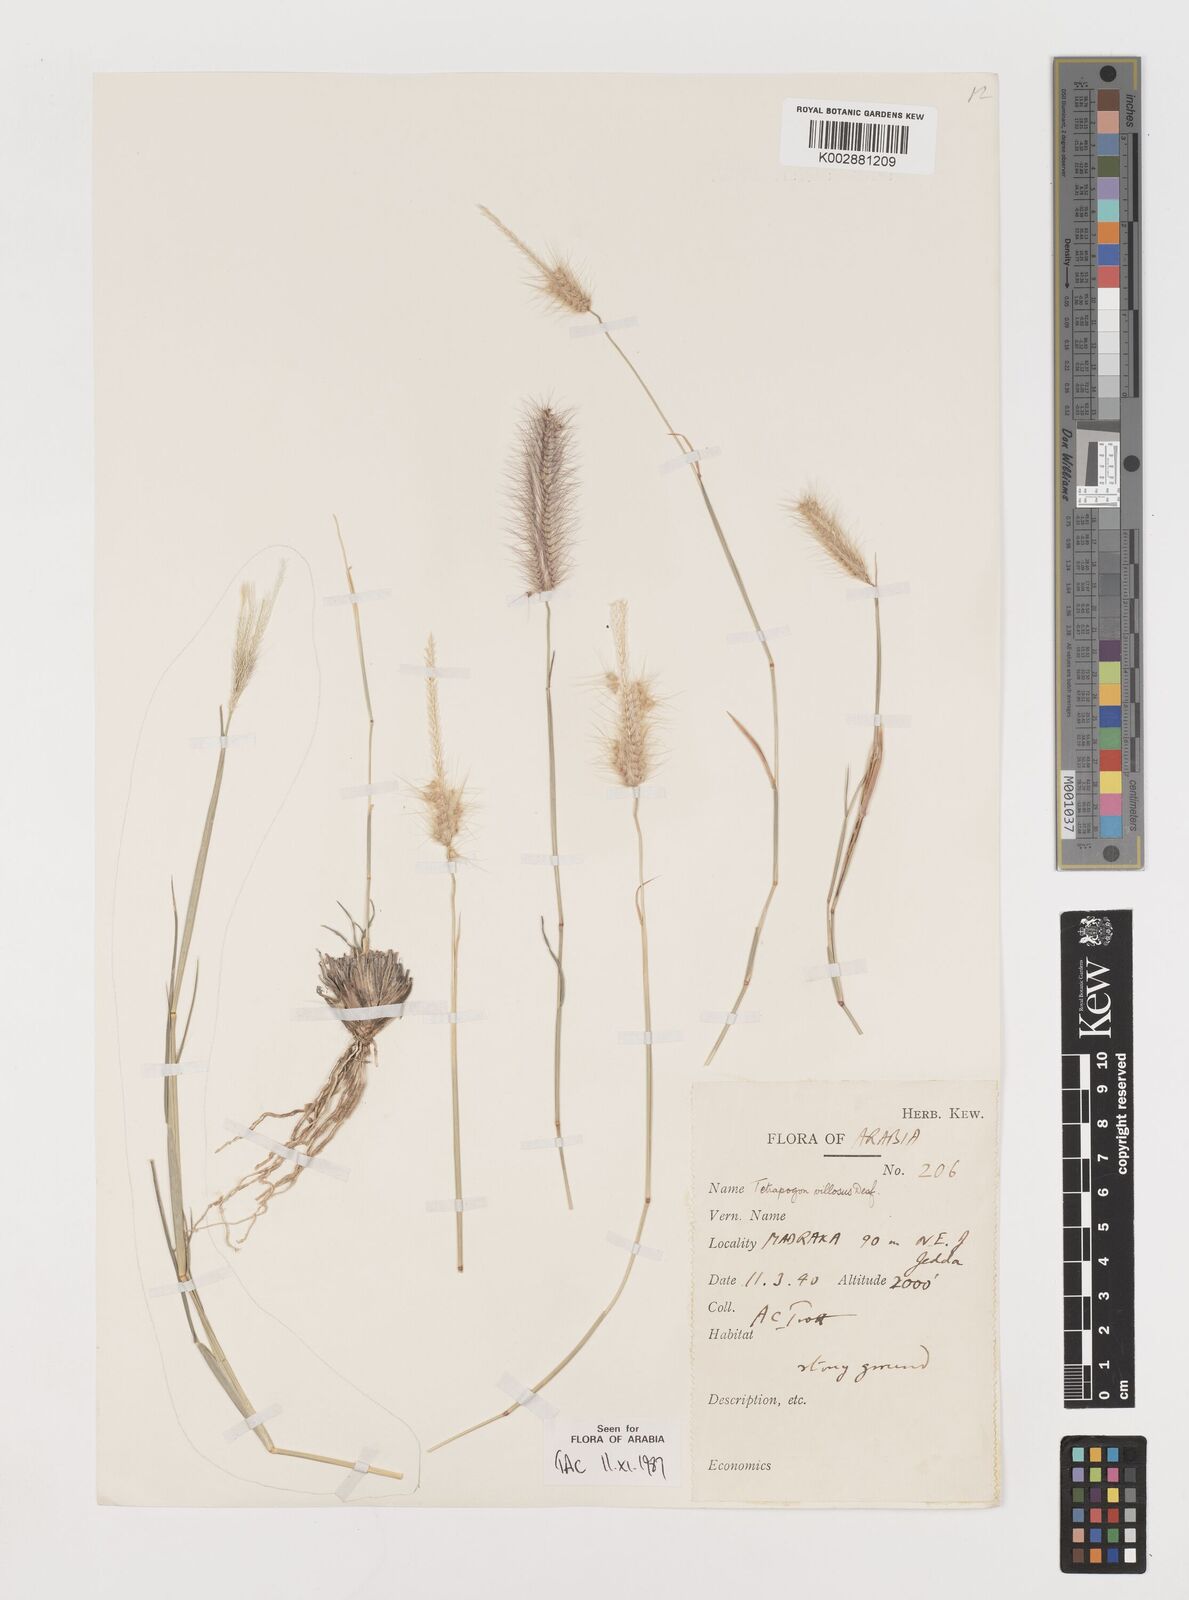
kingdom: Plantae
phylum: Tracheophyta
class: Liliopsida
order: Poales
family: Poaceae
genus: Tetrapogon
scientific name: Tetrapogon villosus
